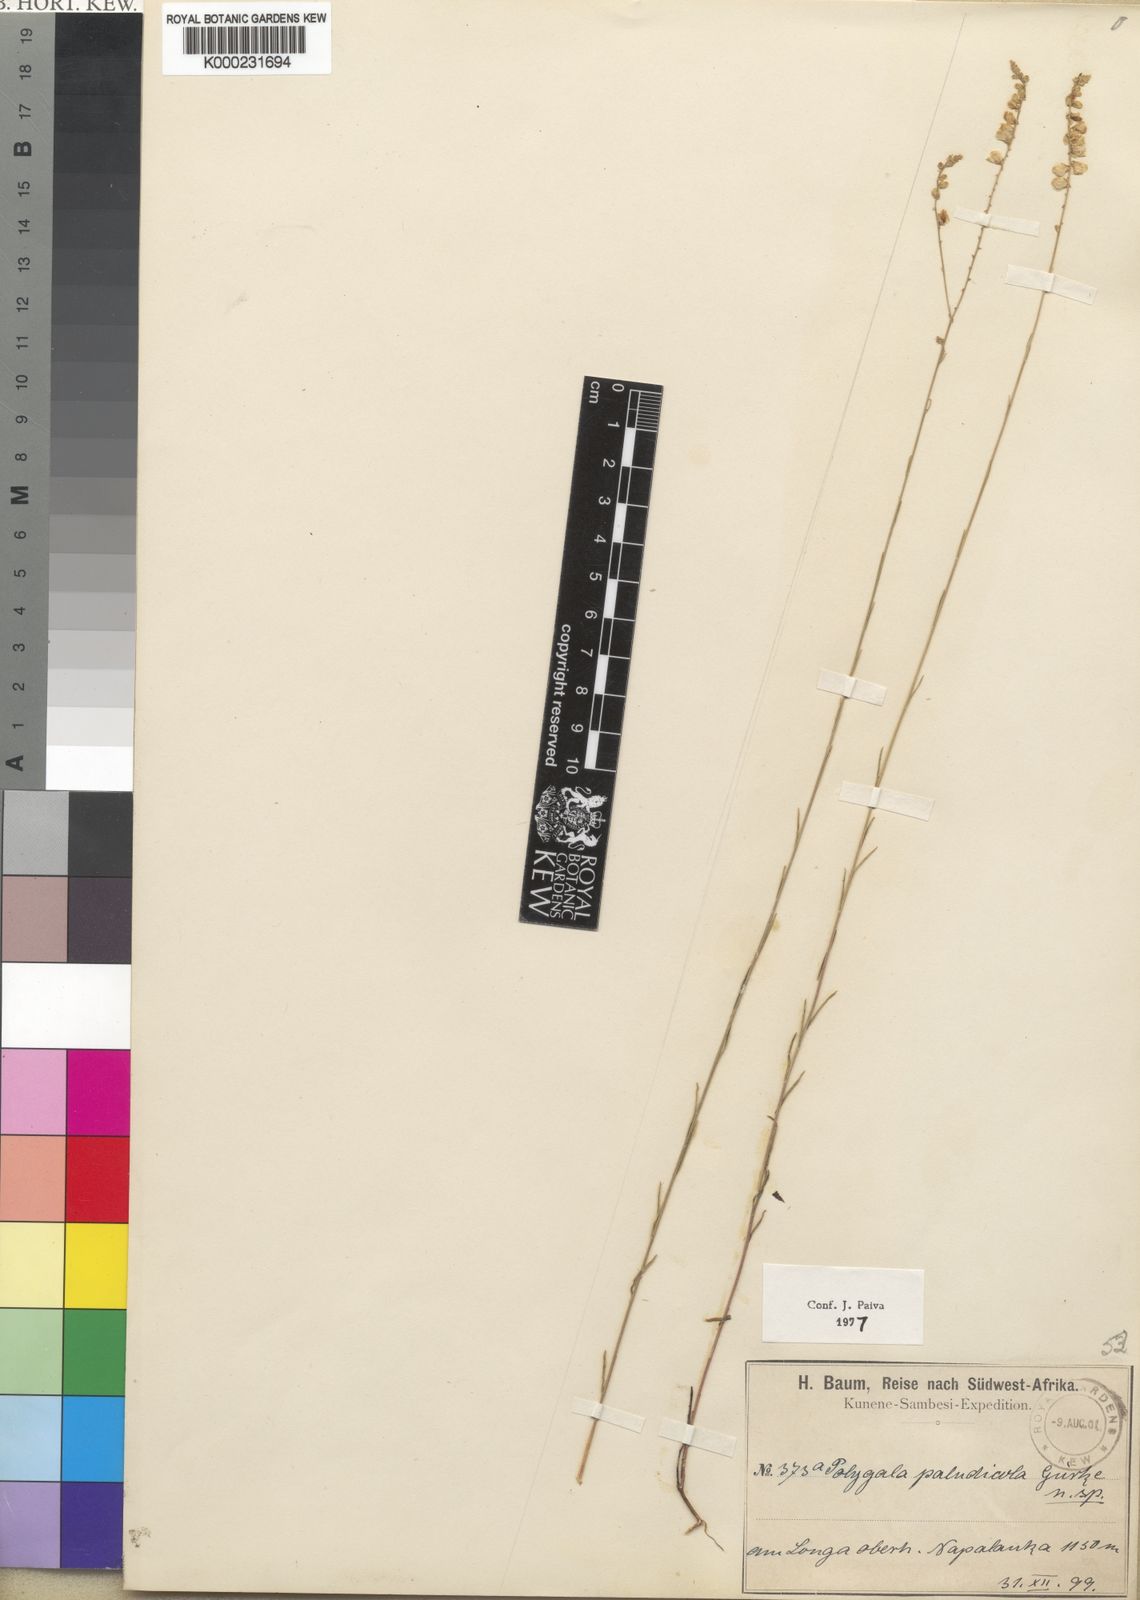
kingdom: Plantae
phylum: Tracheophyta
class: Magnoliopsida
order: Fabales
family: Polygalaceae
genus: Polygala
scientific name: Polygala
